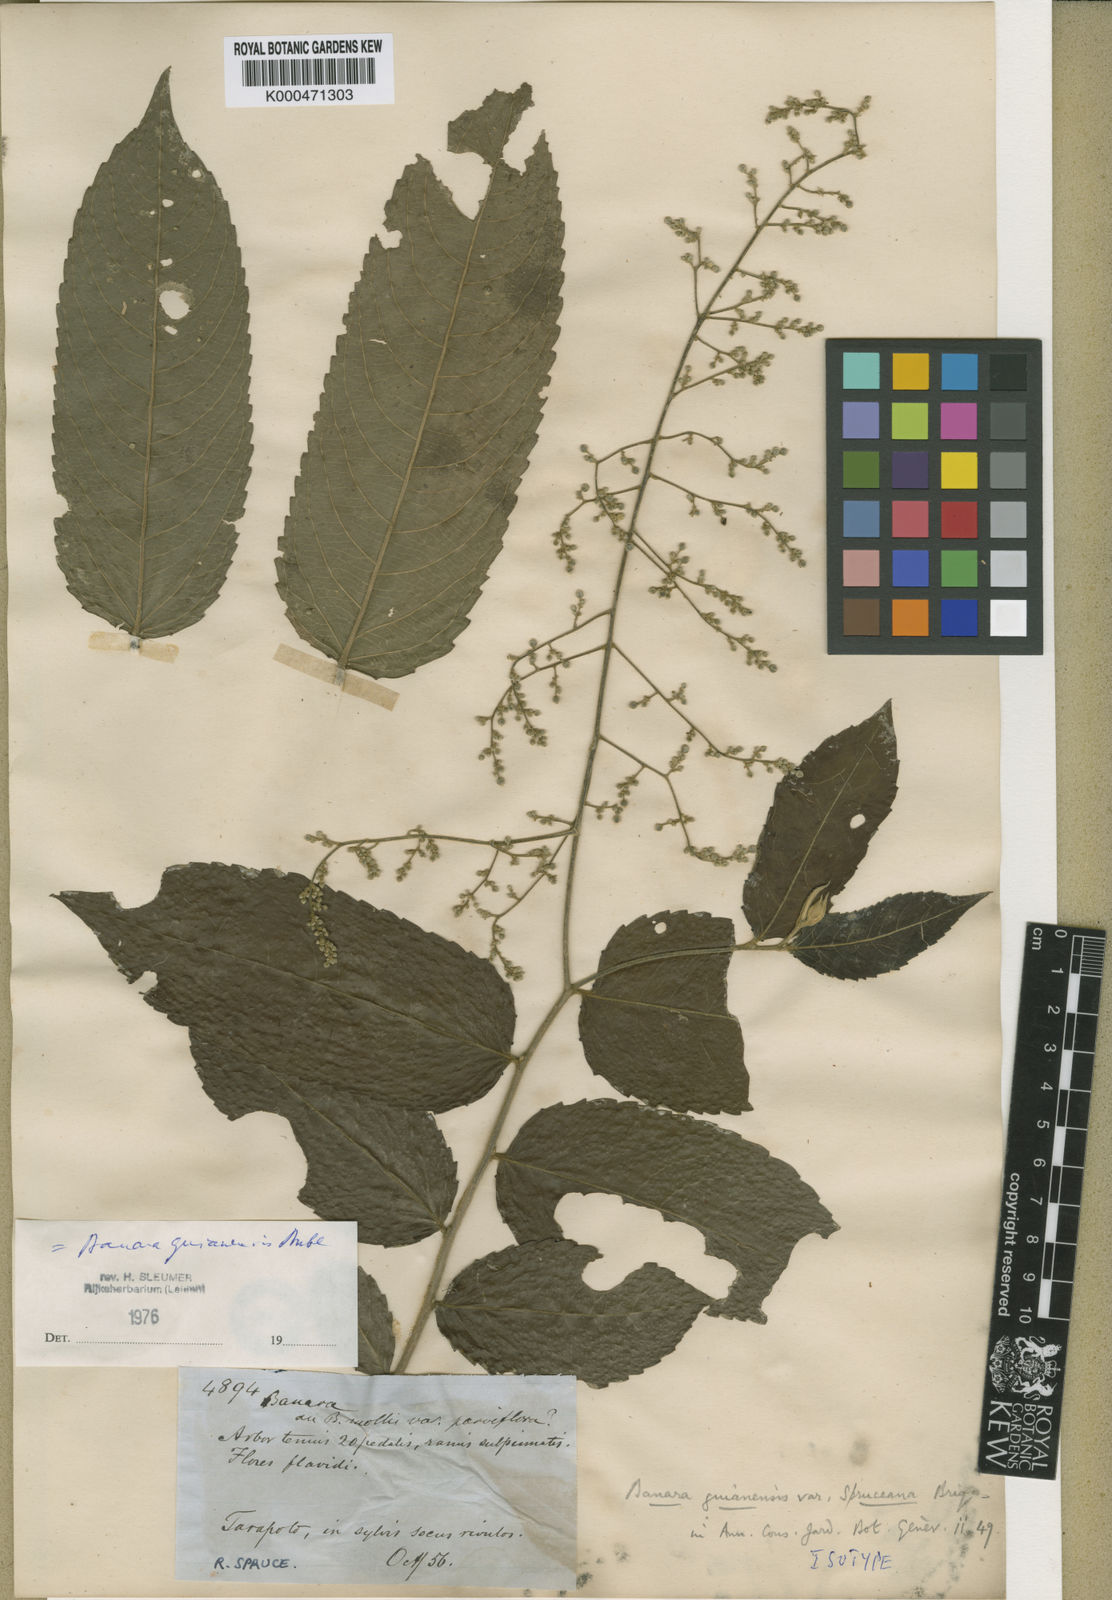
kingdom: Plantae
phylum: Tracheophyta
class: Magnoliopsida
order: Malpighiales
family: Salicaceae
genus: Banara
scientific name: Banara guianensis
